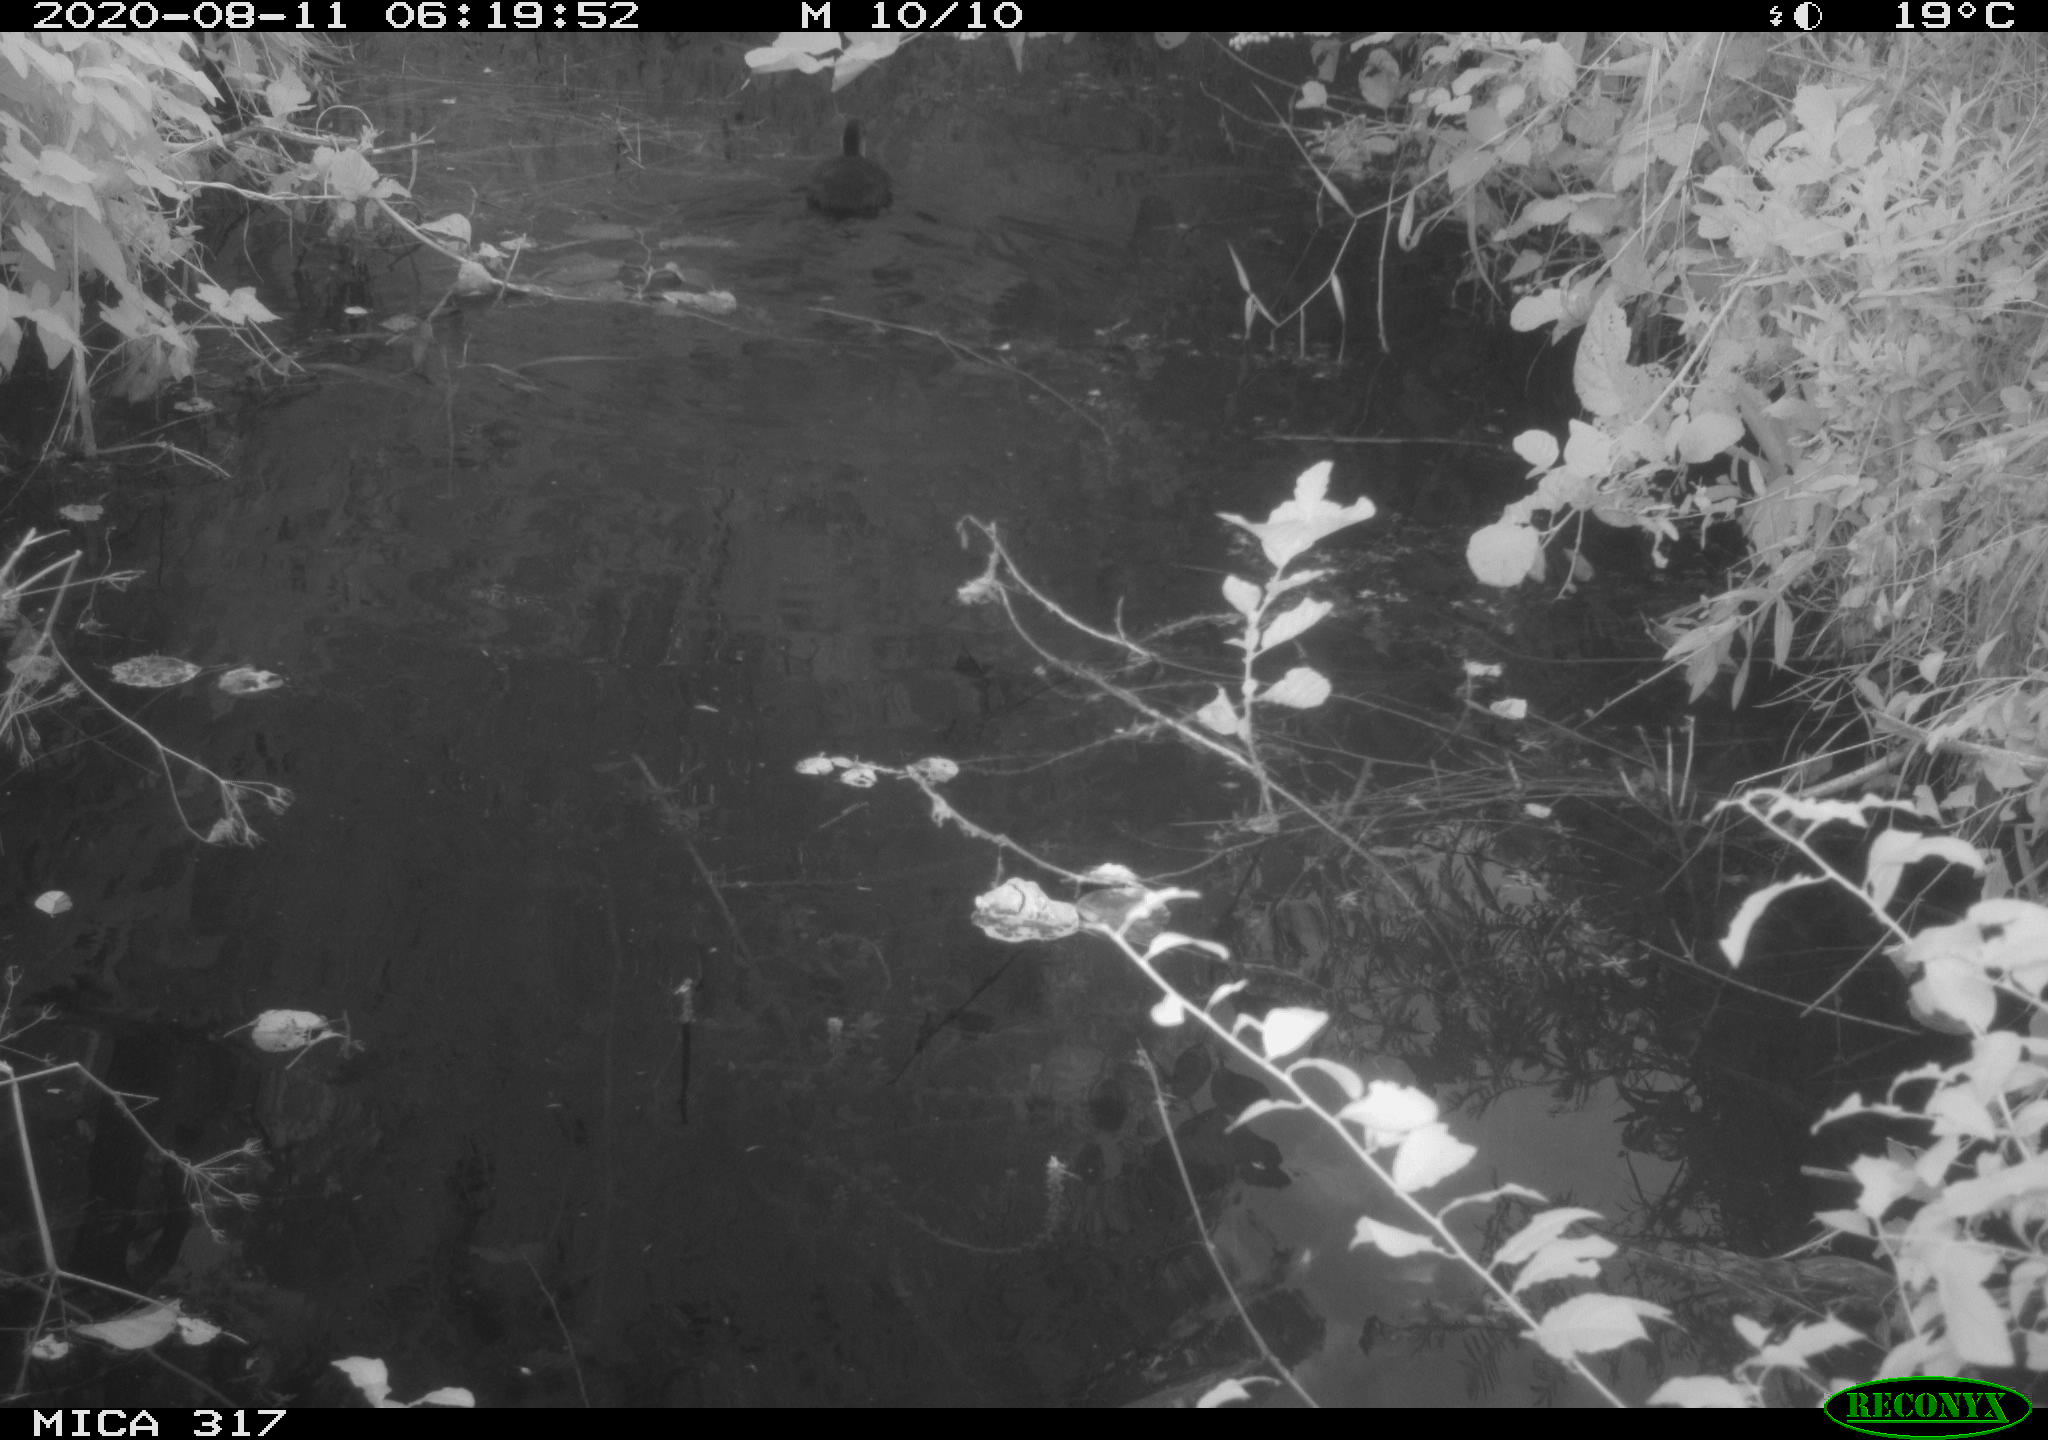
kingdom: Animalia
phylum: Chordata
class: Aves
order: Gruiformes
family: Rallidae
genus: Fulica
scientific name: Fulica atra
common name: Eurasian coot
